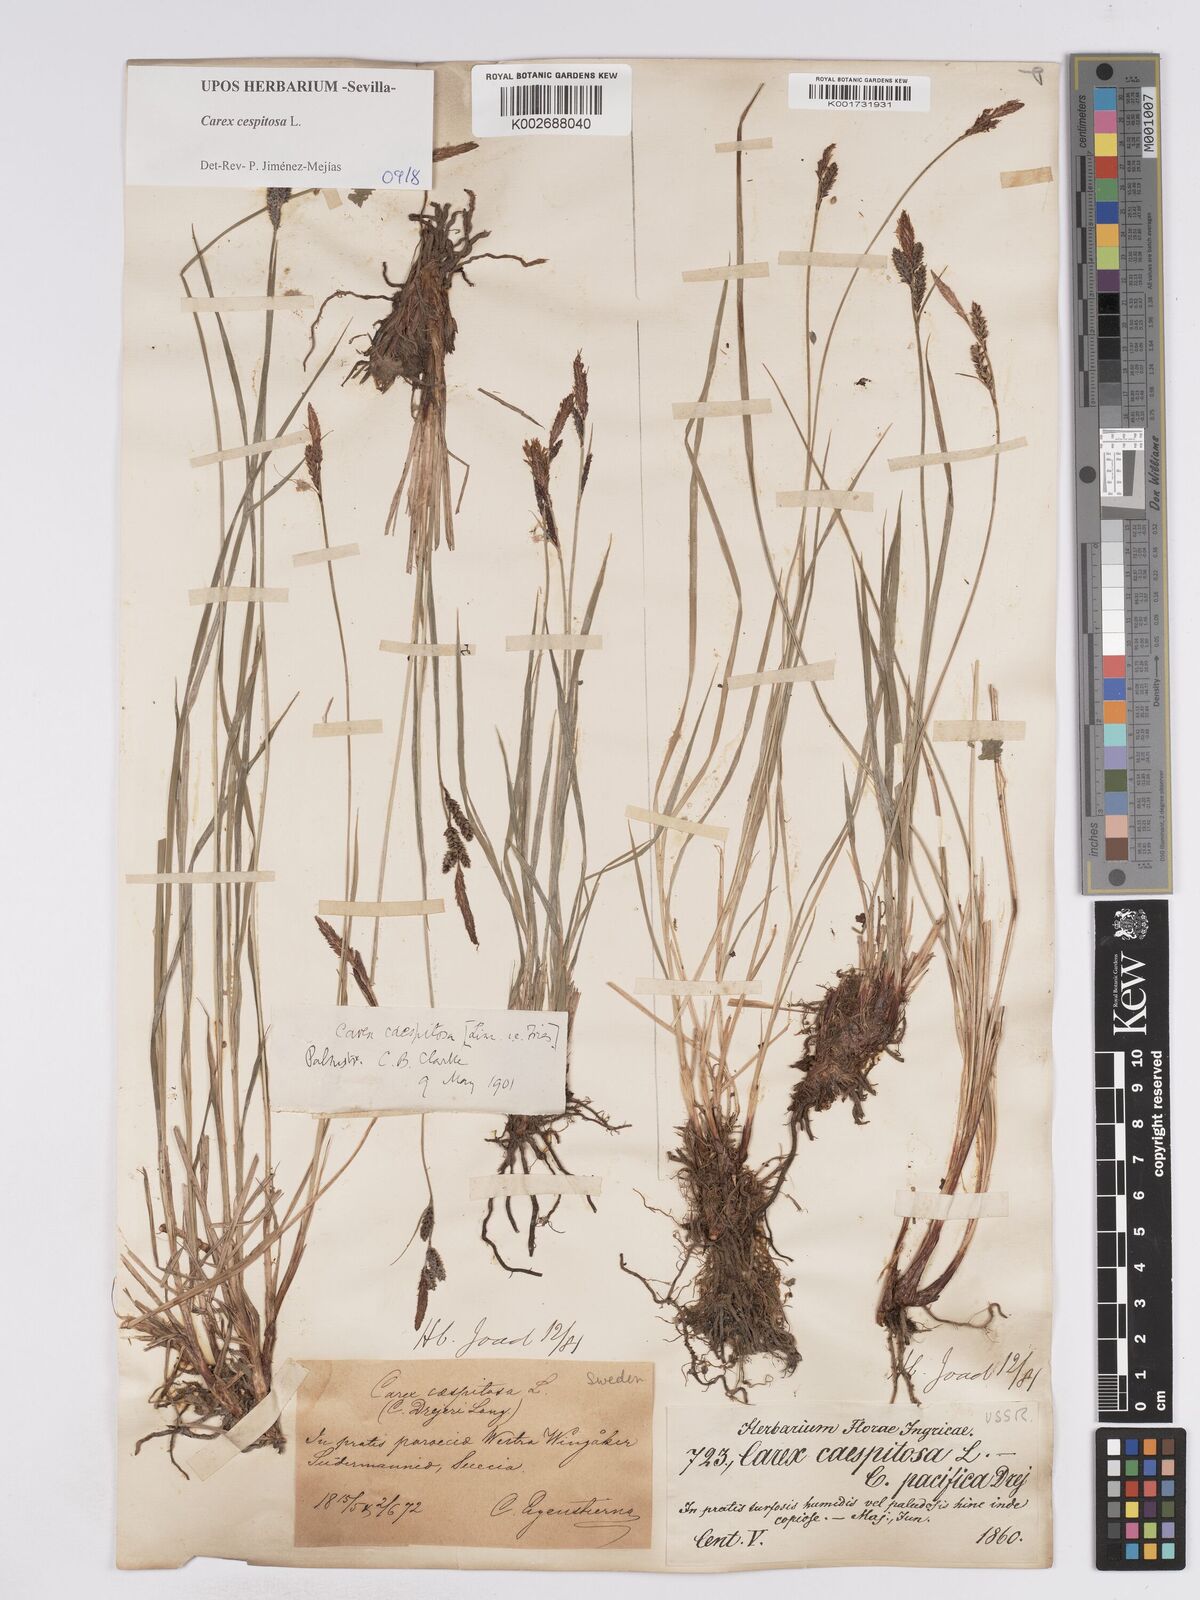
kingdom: Plantae
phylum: Tracheophyta
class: Liliopsida
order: Poales
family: Cyperaceae
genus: Carex
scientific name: Carex
